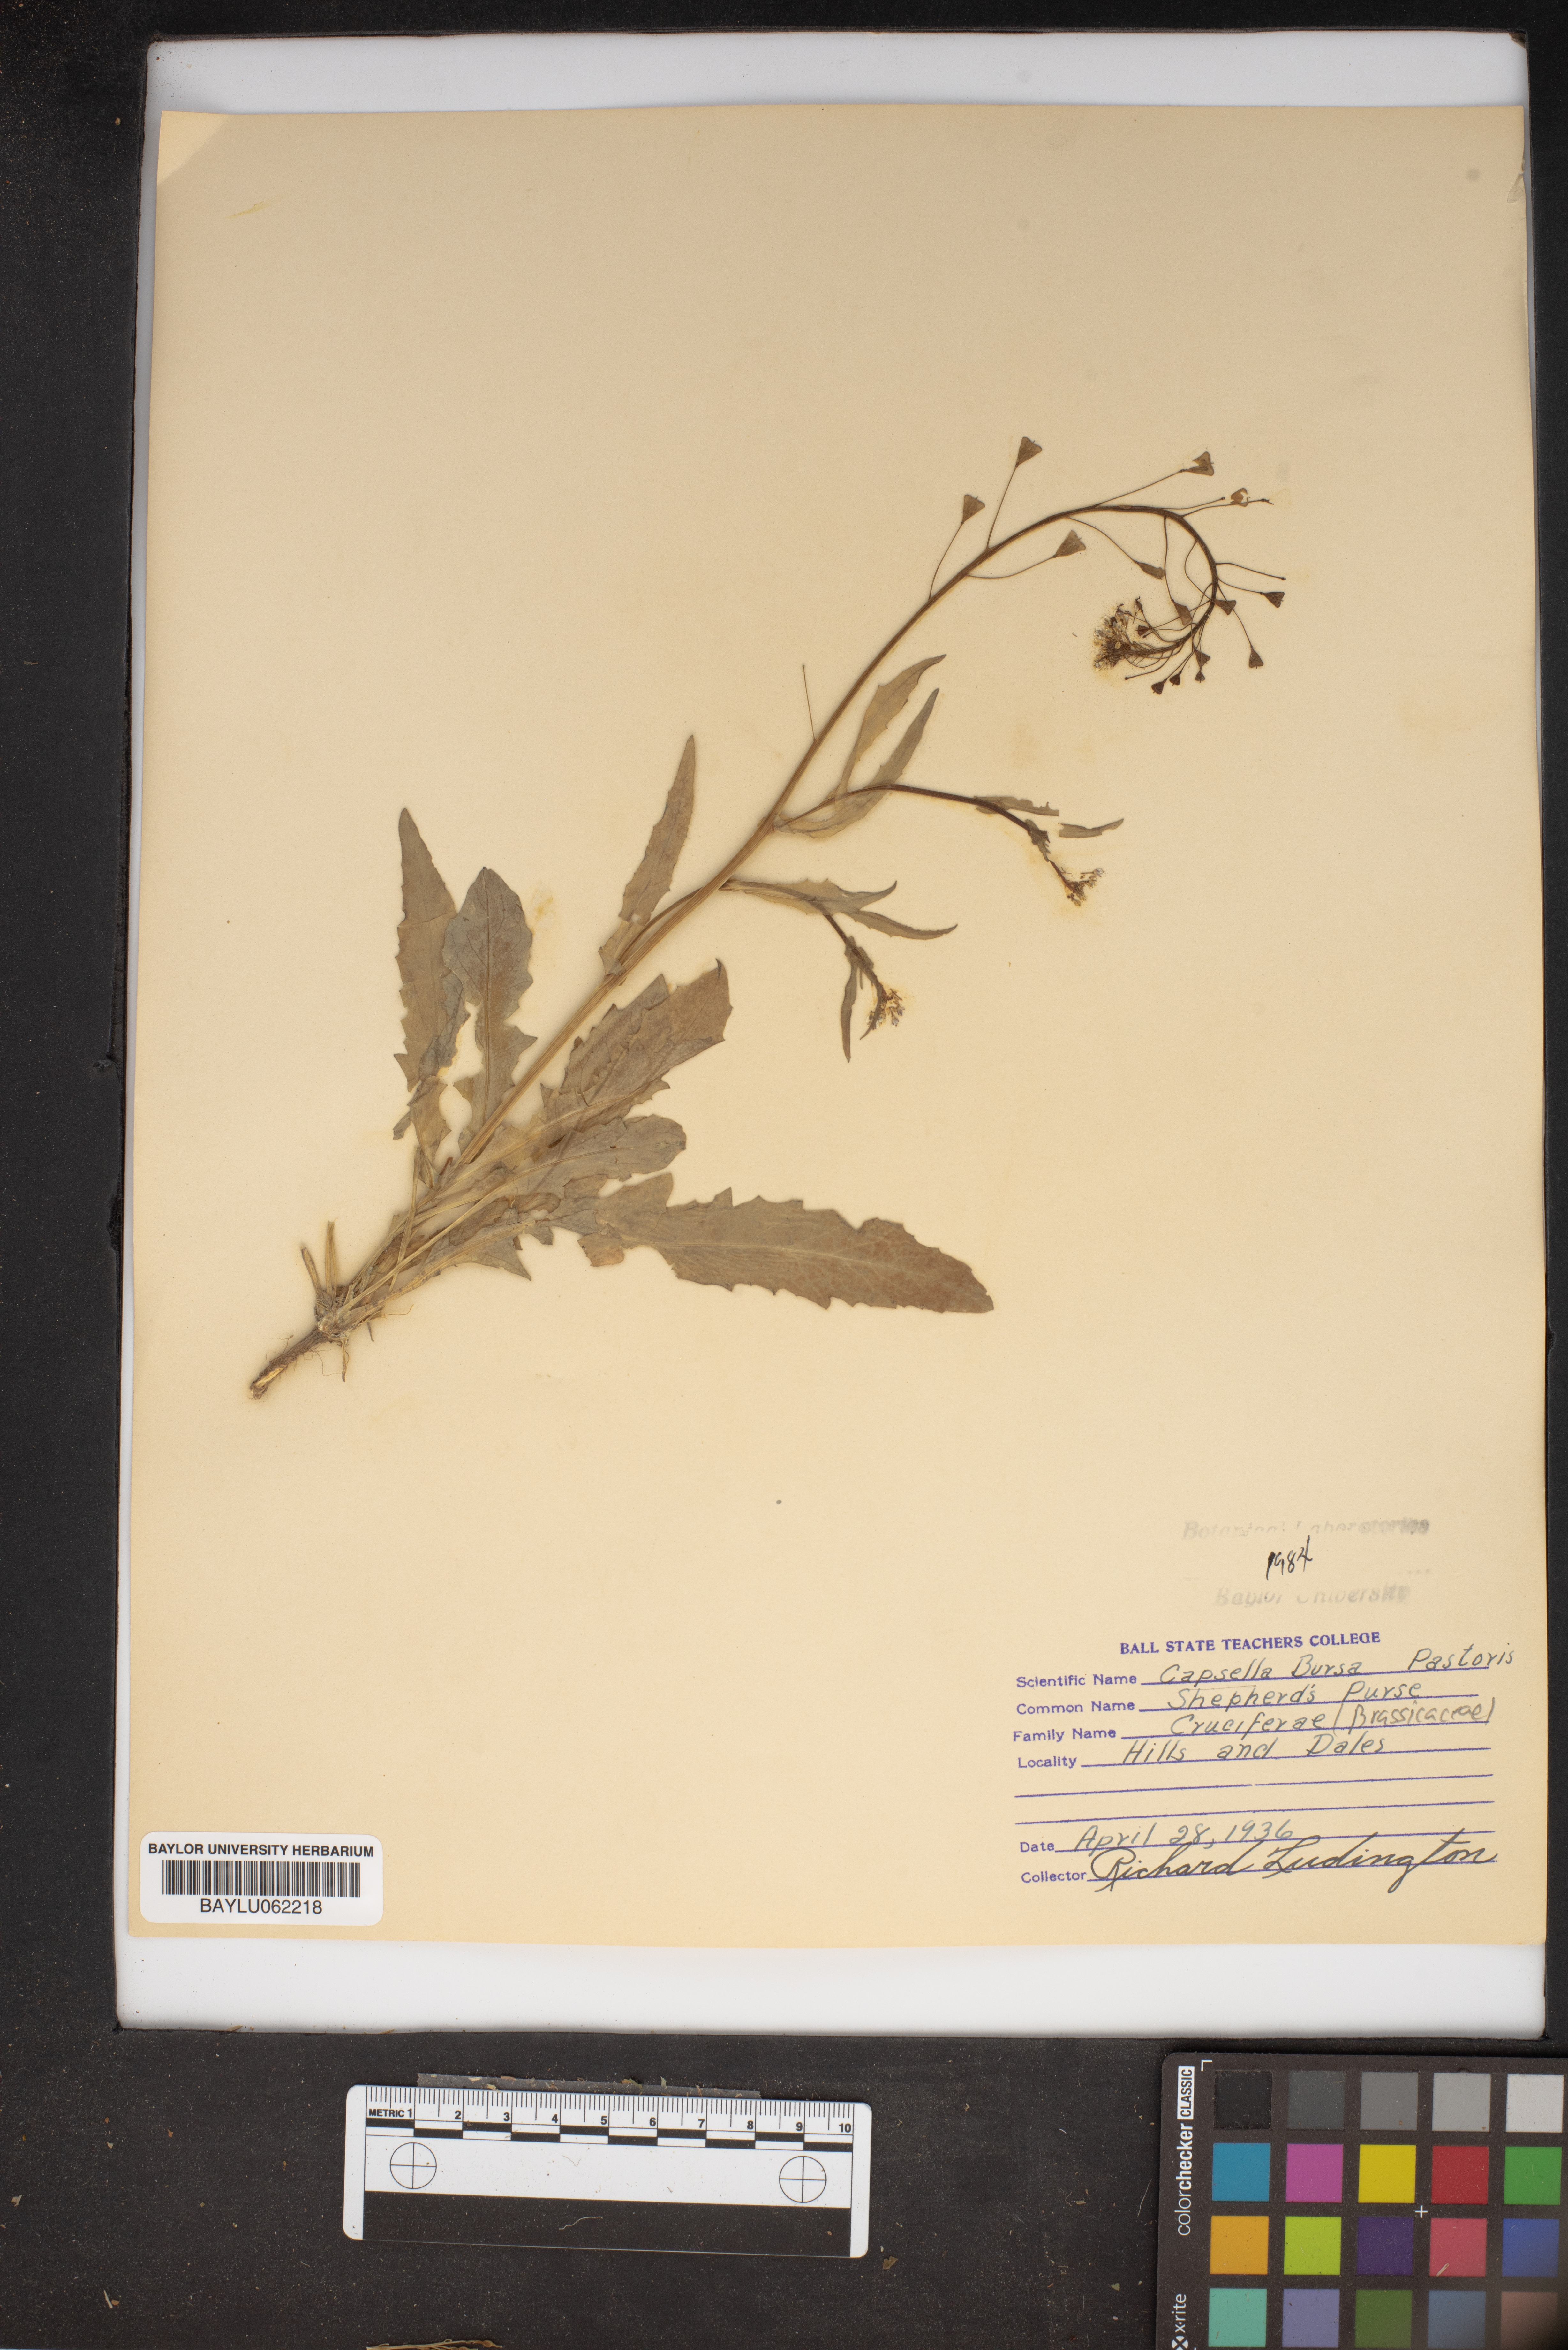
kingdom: Plantae
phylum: Tracheophyta
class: Magnoliopsida
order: Brassicales
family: Brassicaceae
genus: Capsella
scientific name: Capsella bursa-pastoris
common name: Shepherd's purse
